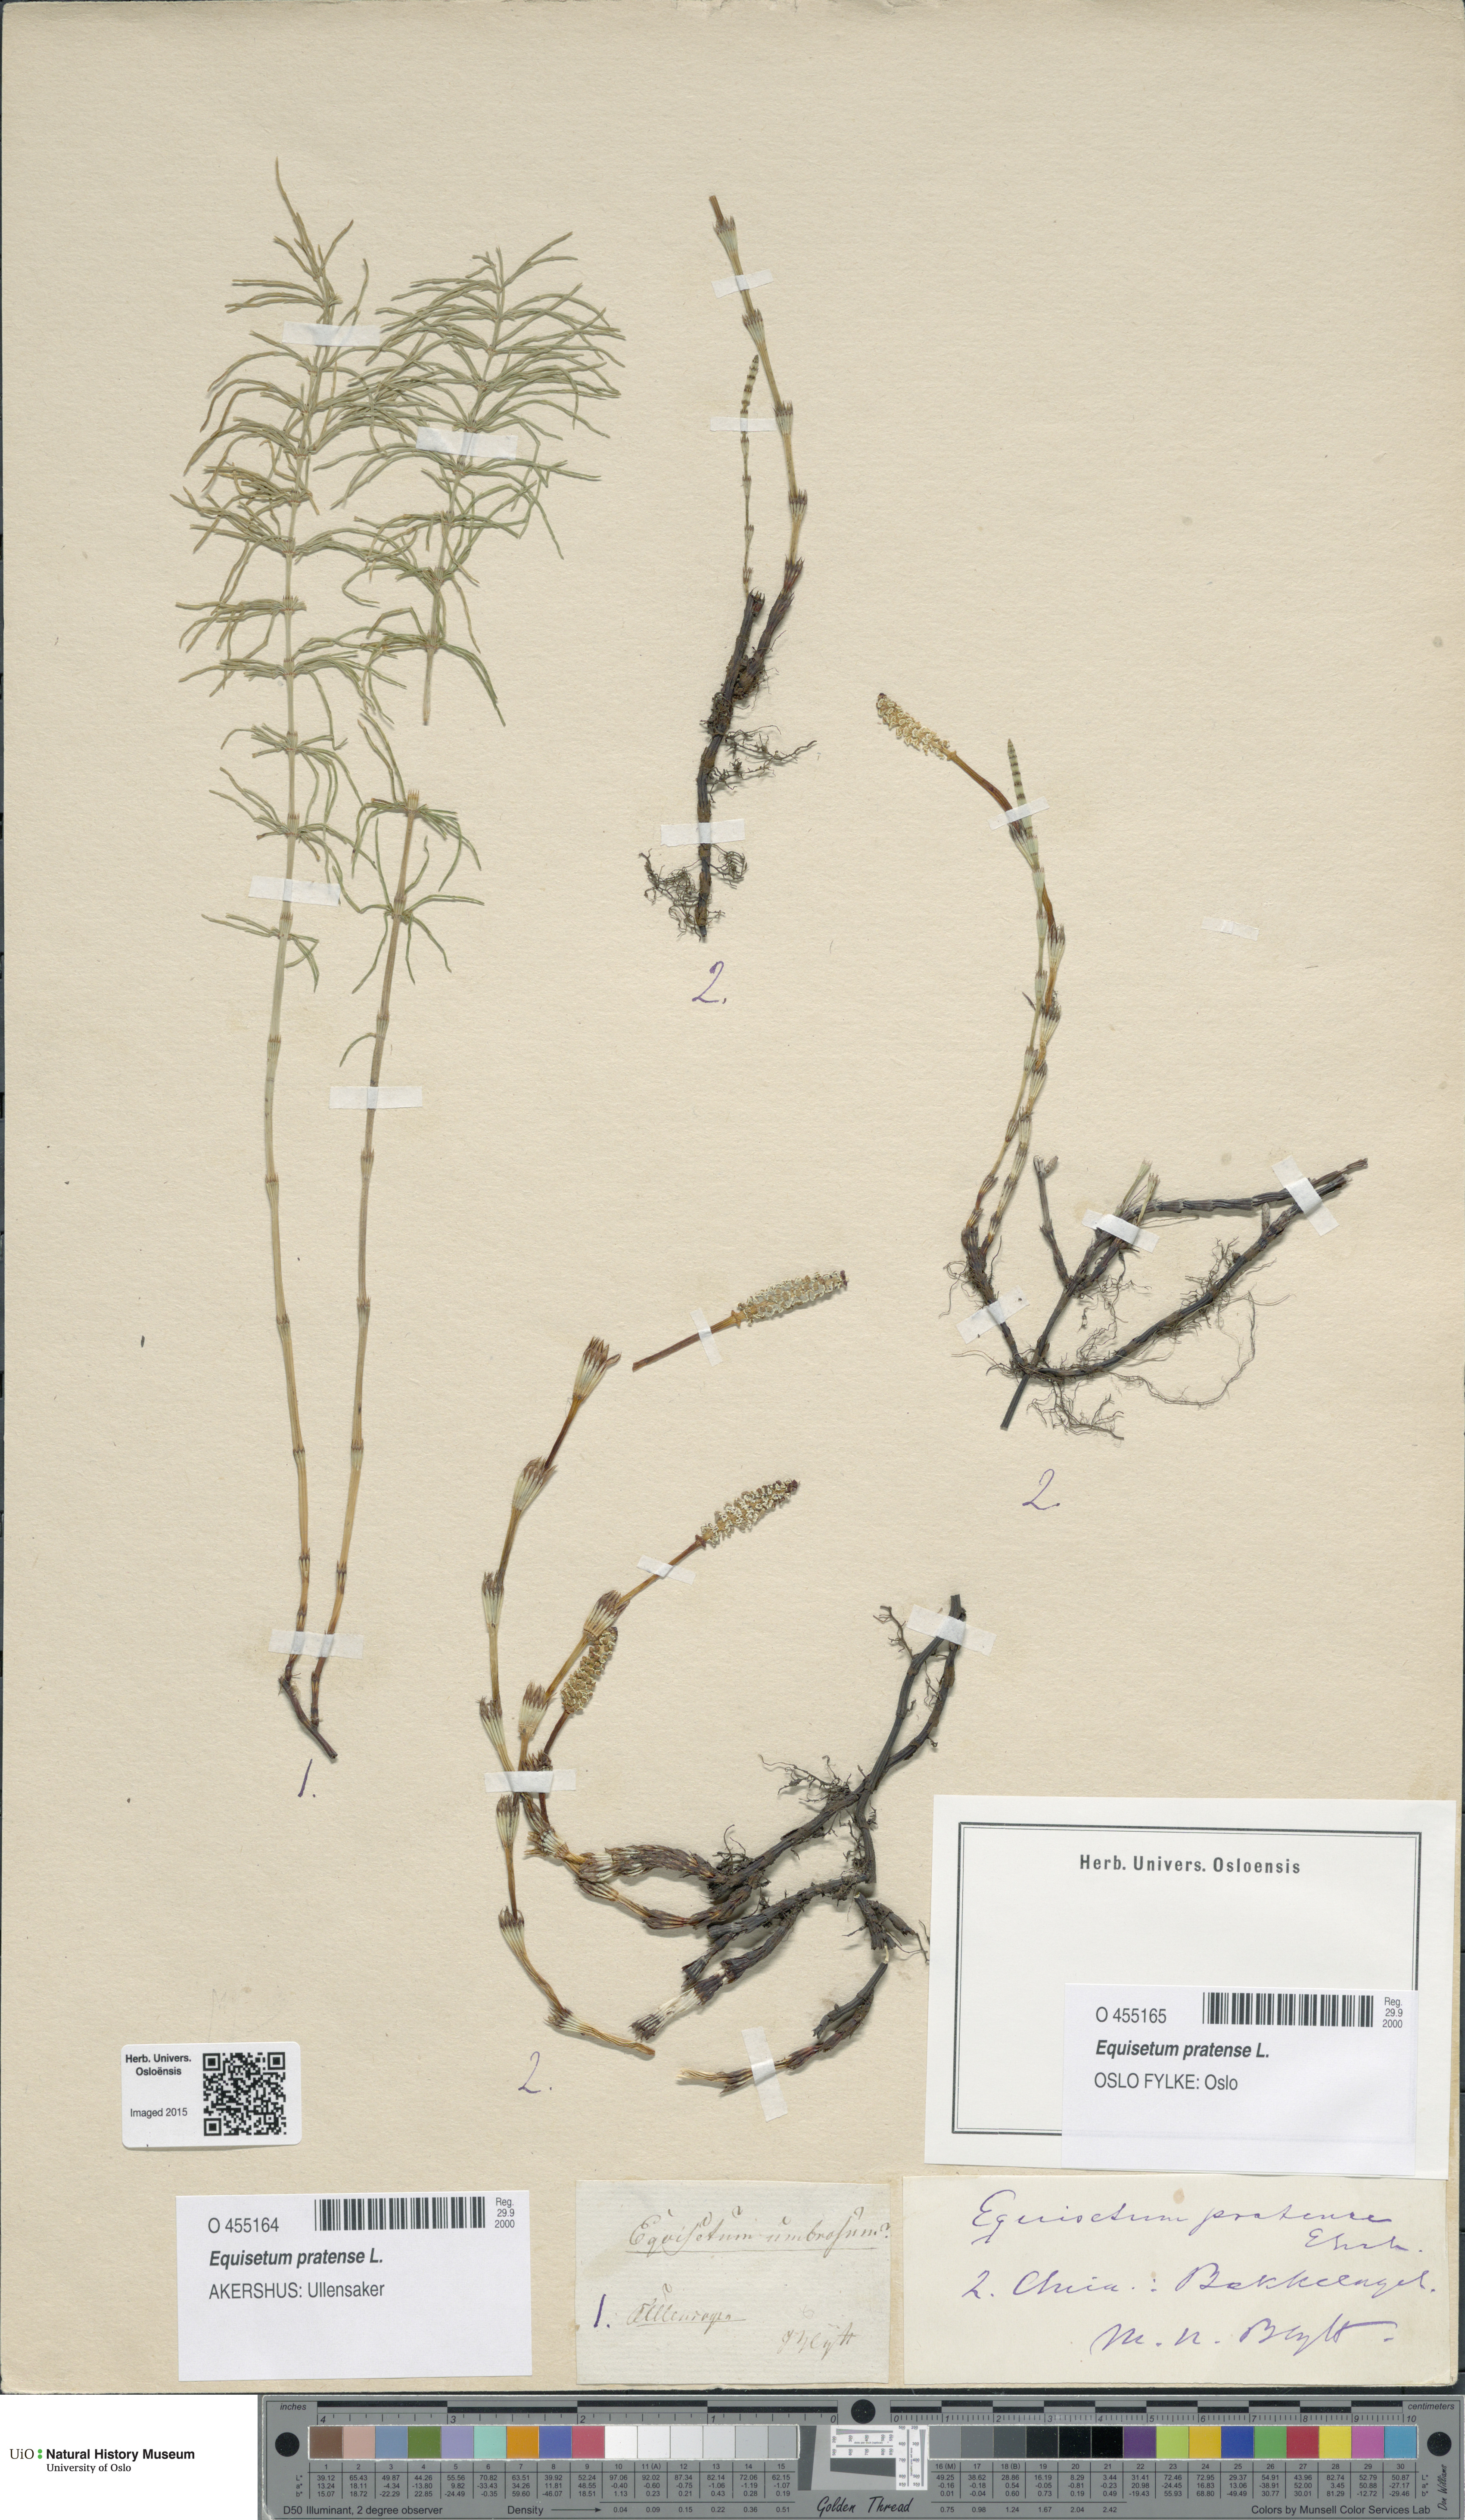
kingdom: Plantae
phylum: Tracheophyta
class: Polypodiopsida
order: Equisetales
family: Equisetaceae
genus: Equisetum
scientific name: Equisetum pratense
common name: Meadow horsetail
